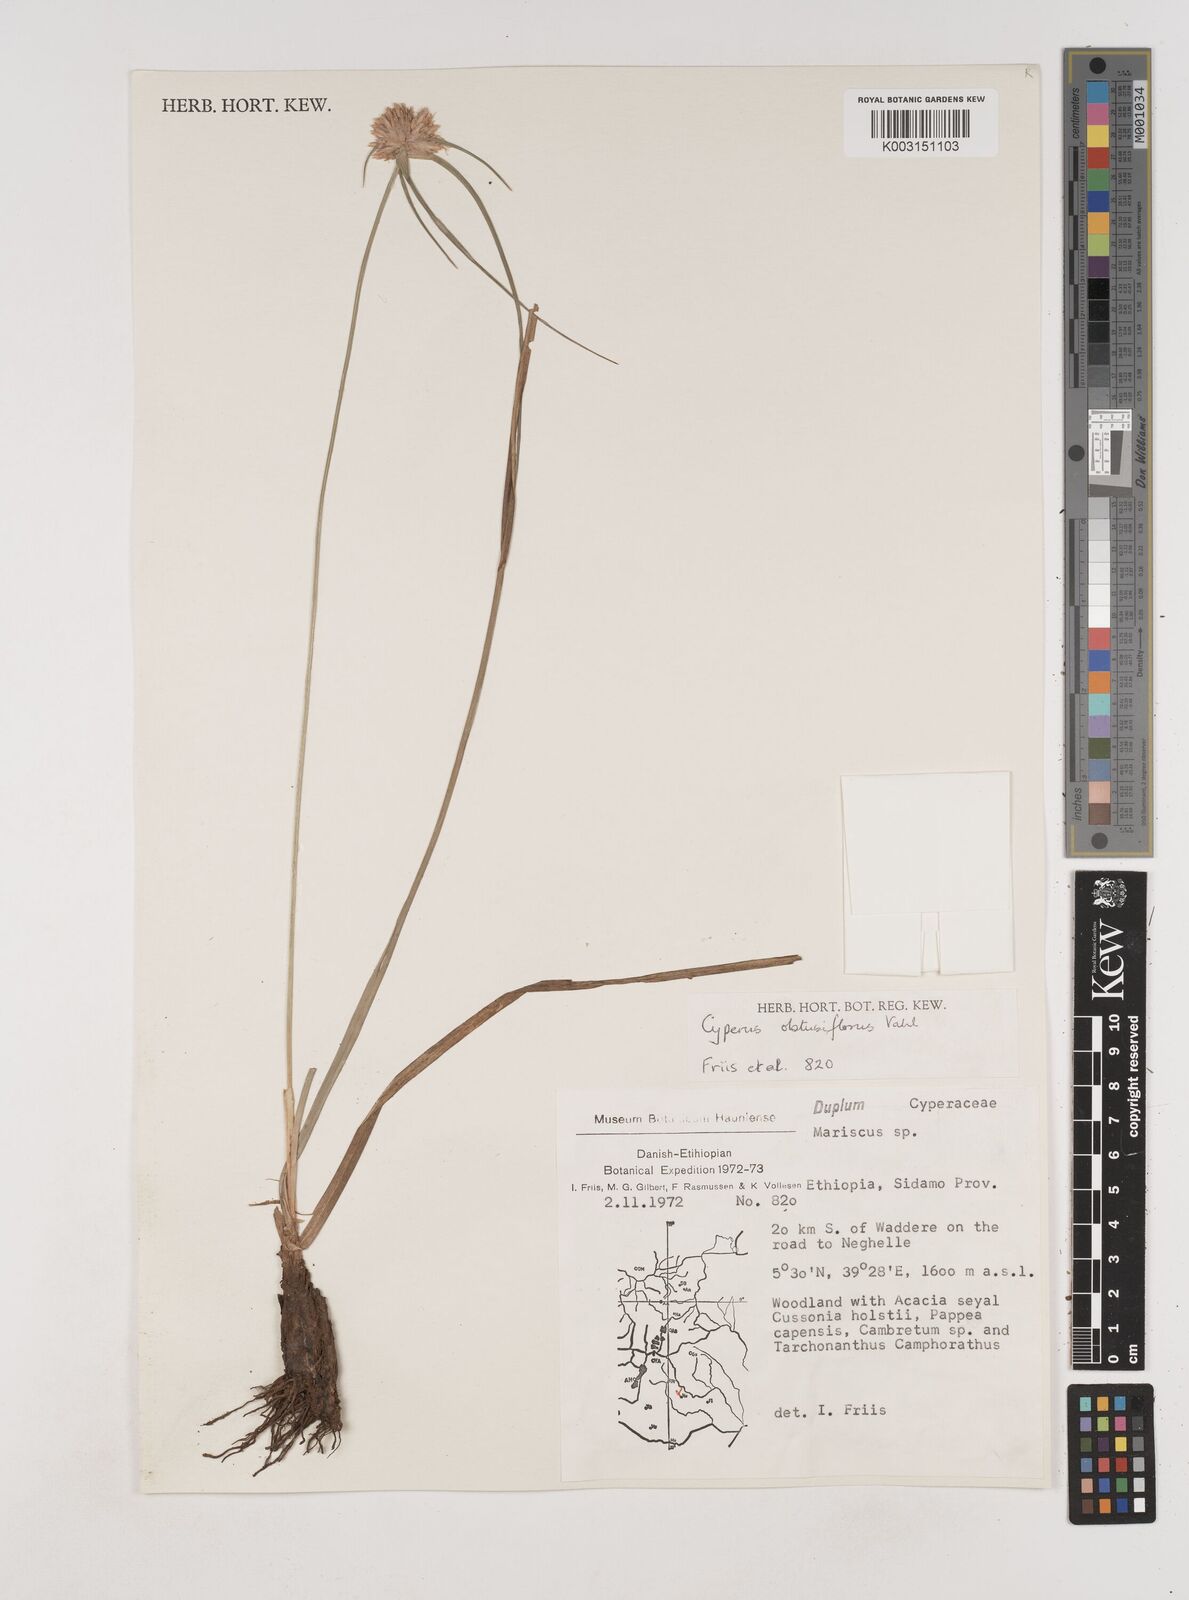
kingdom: Plantae
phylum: Tracheophyta
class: Liliopsida
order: Poales
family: Cyperaceae
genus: Cyperus
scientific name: Cyperus niveus
